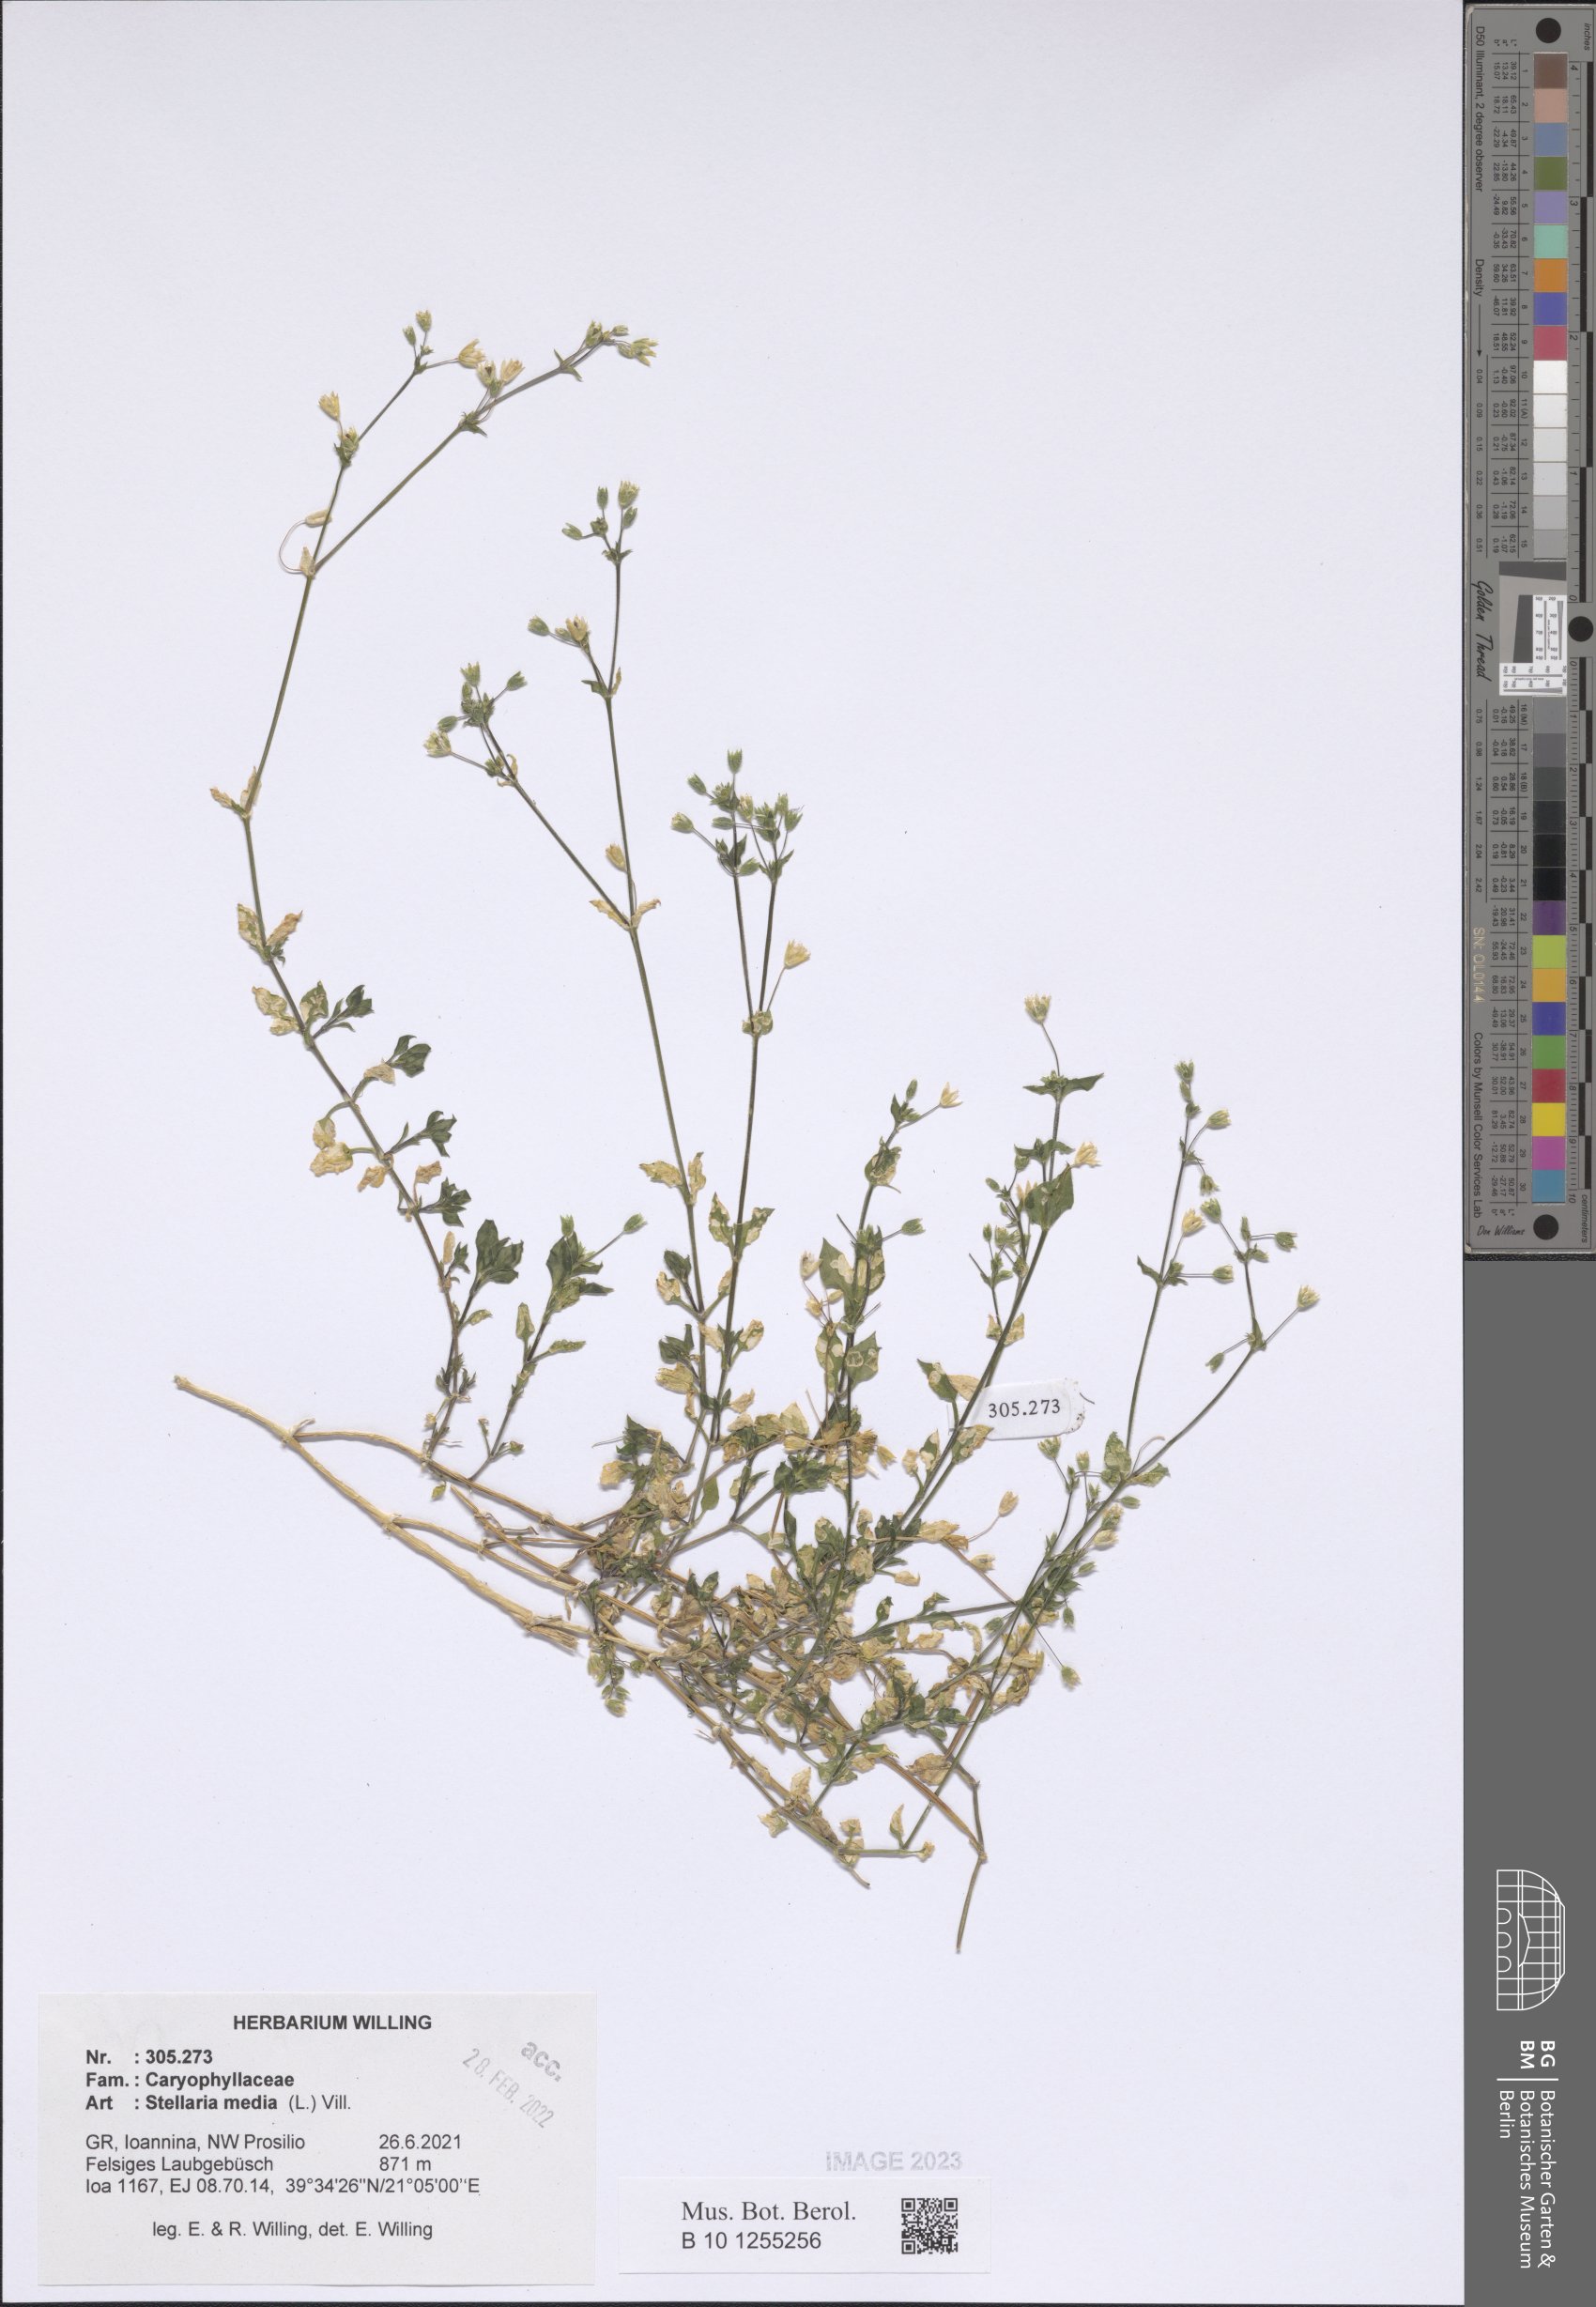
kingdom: Plantae
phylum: Tracheophyta
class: Magnoliopsida
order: Caryophyllales
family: Caryophyllaceae
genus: Stellaria
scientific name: Stellaria media
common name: Common chickweed
